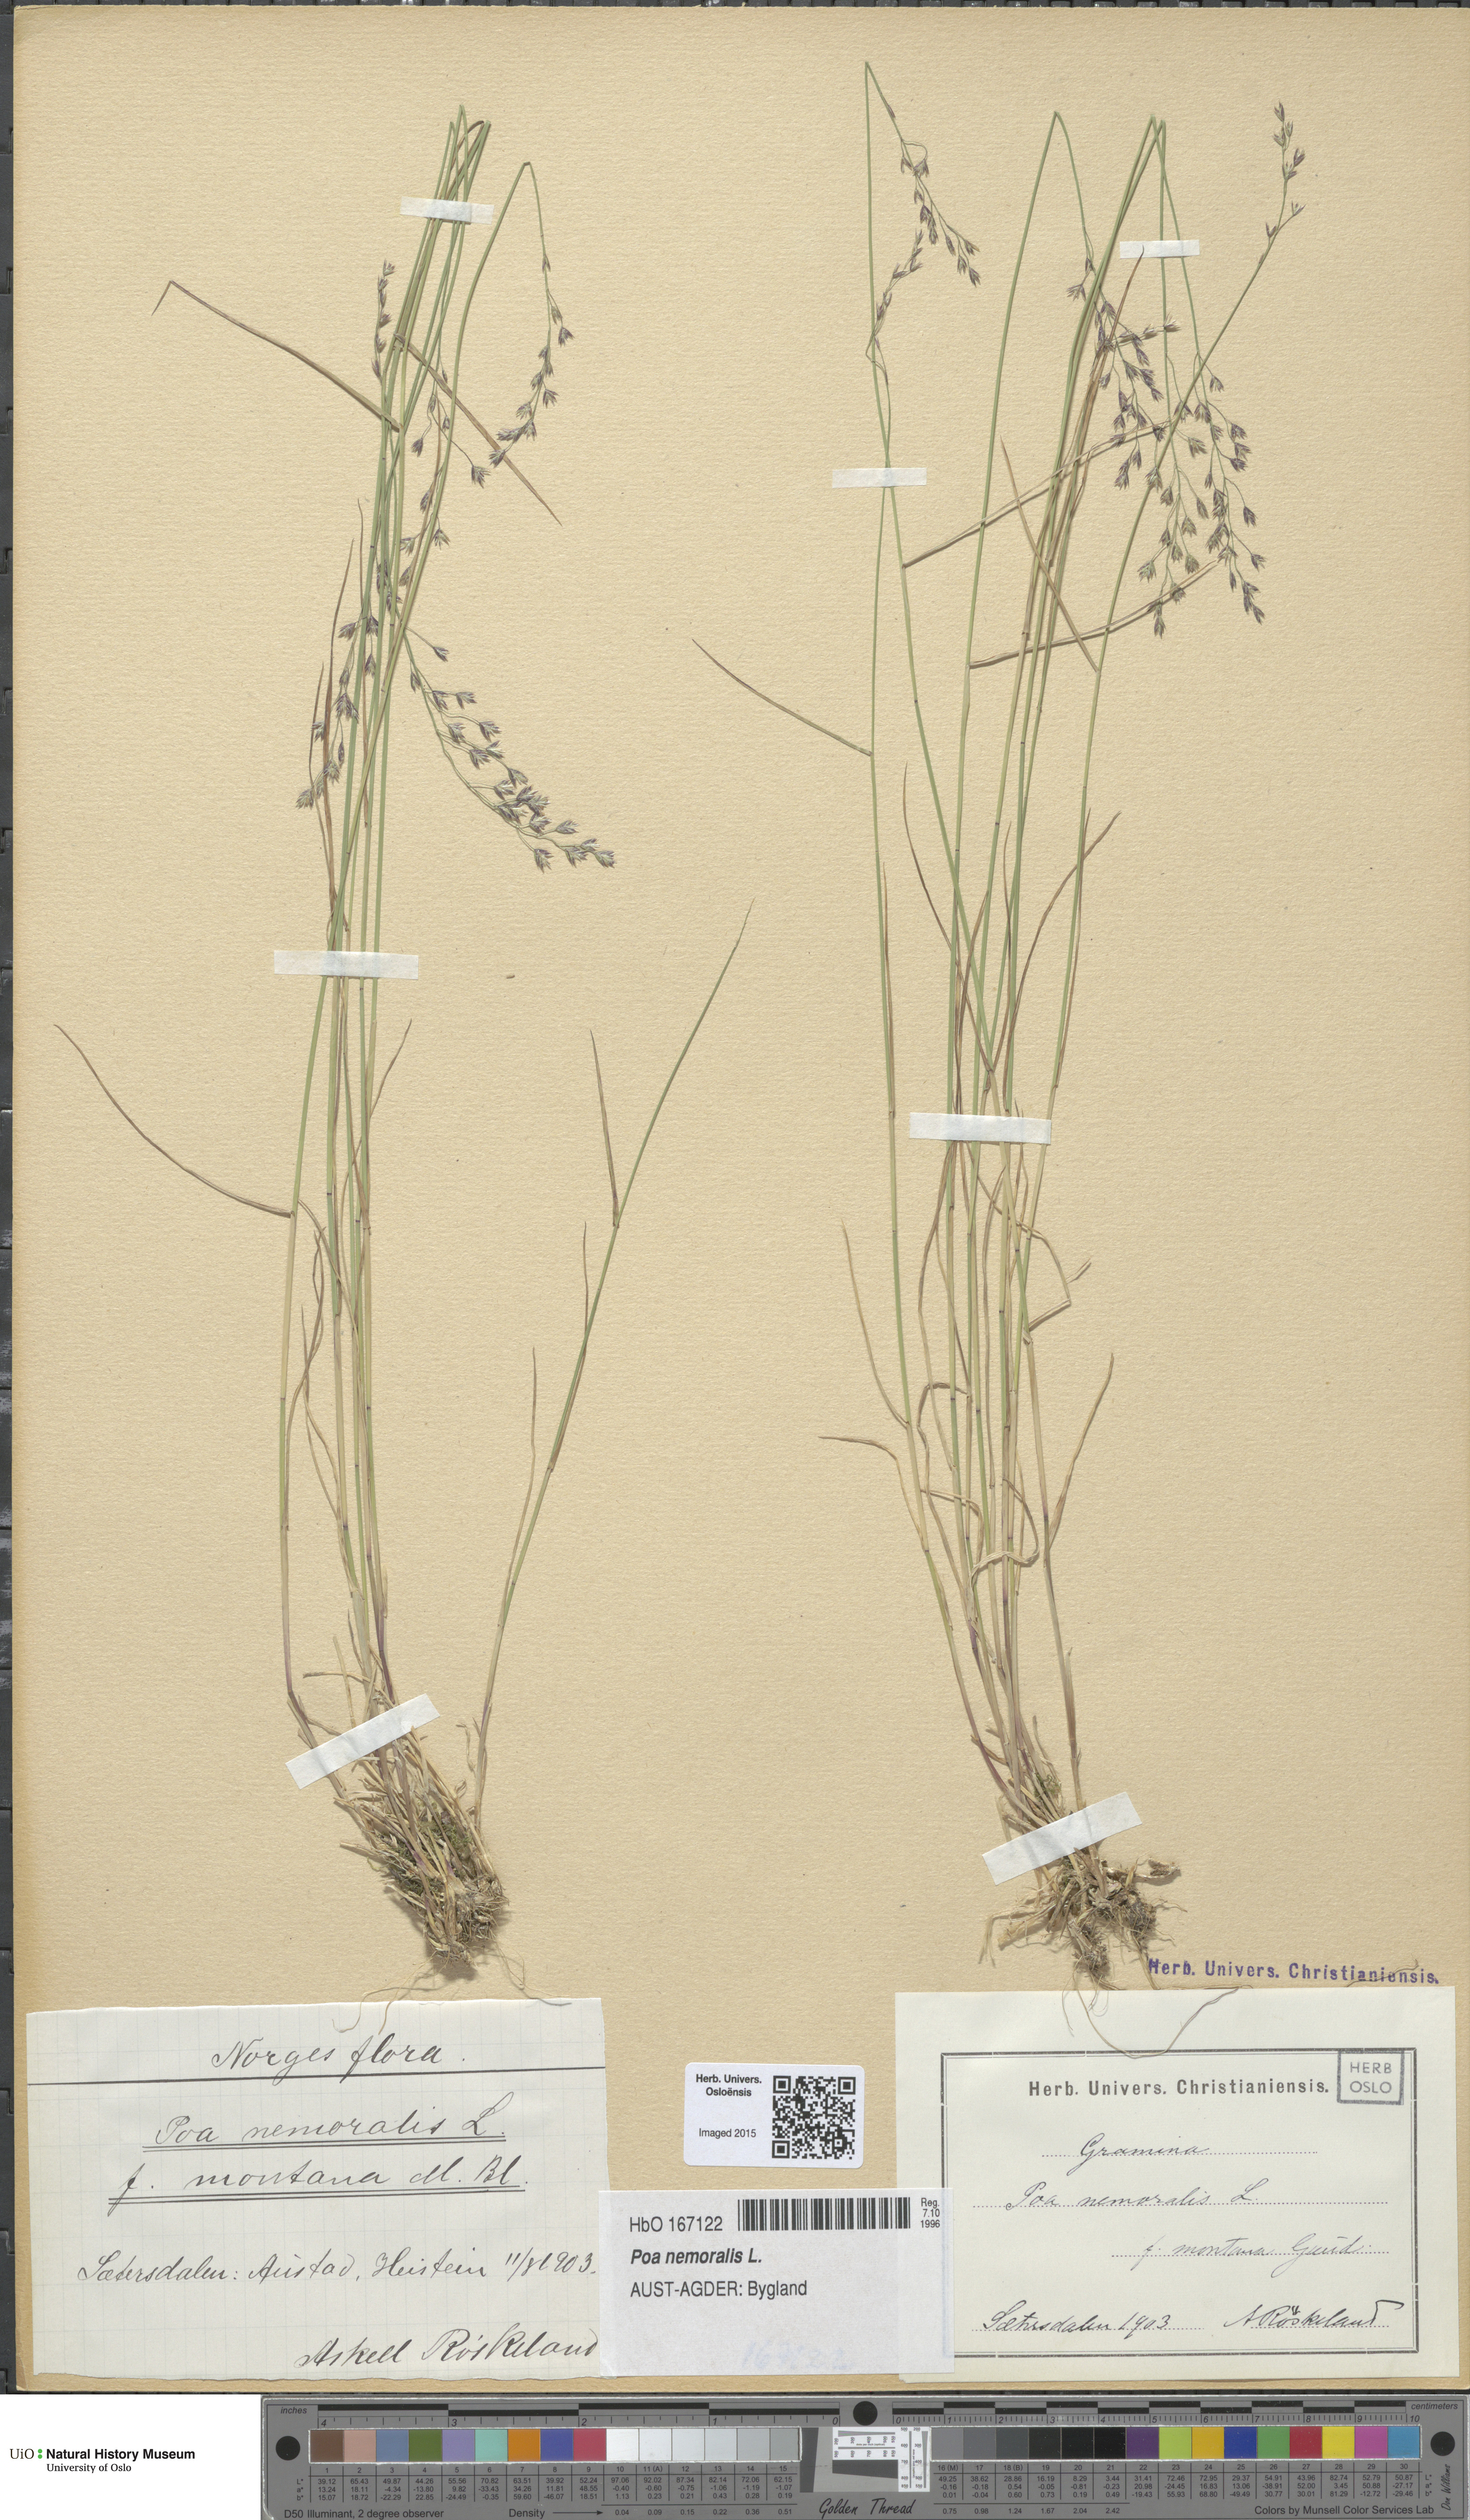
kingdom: Plantae
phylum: Tracheophyta
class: Liliopsida
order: Poales
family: Poaceae
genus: Poa
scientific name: Poa nemoralis
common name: Wood bluegrass
